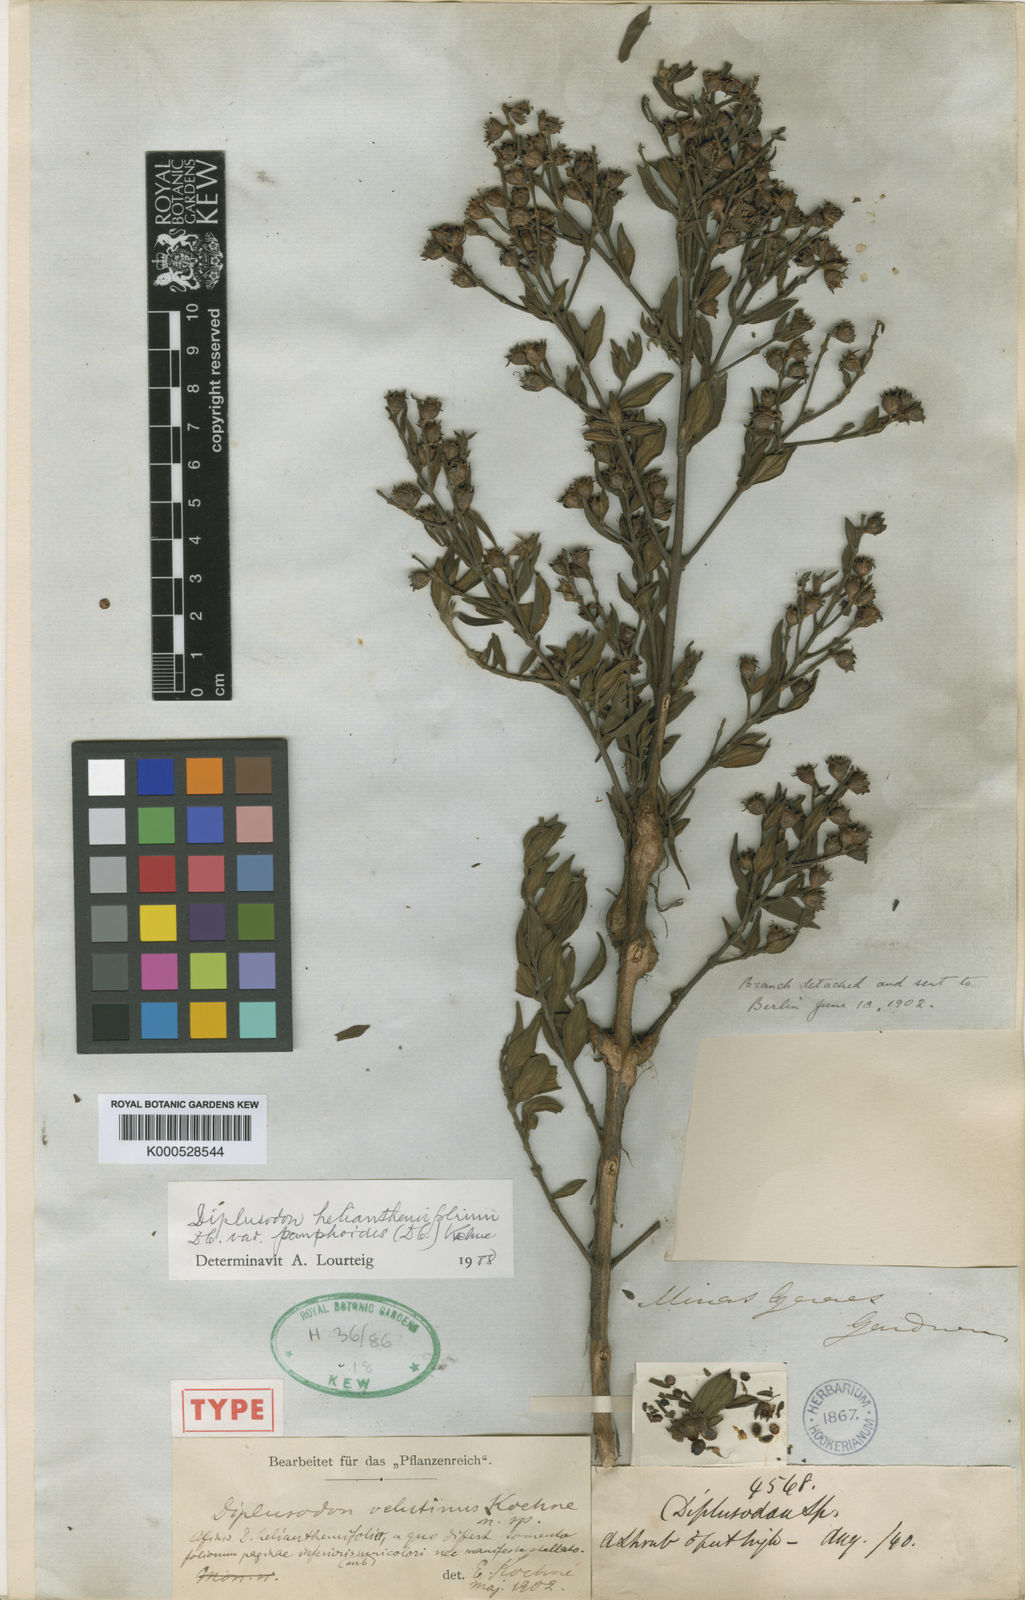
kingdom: Plantae
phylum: Tracheophyta
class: Magnoliopsida
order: Myrtales
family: Lythraceae
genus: Diplusodon
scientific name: Diplusodon helianthemifolius
